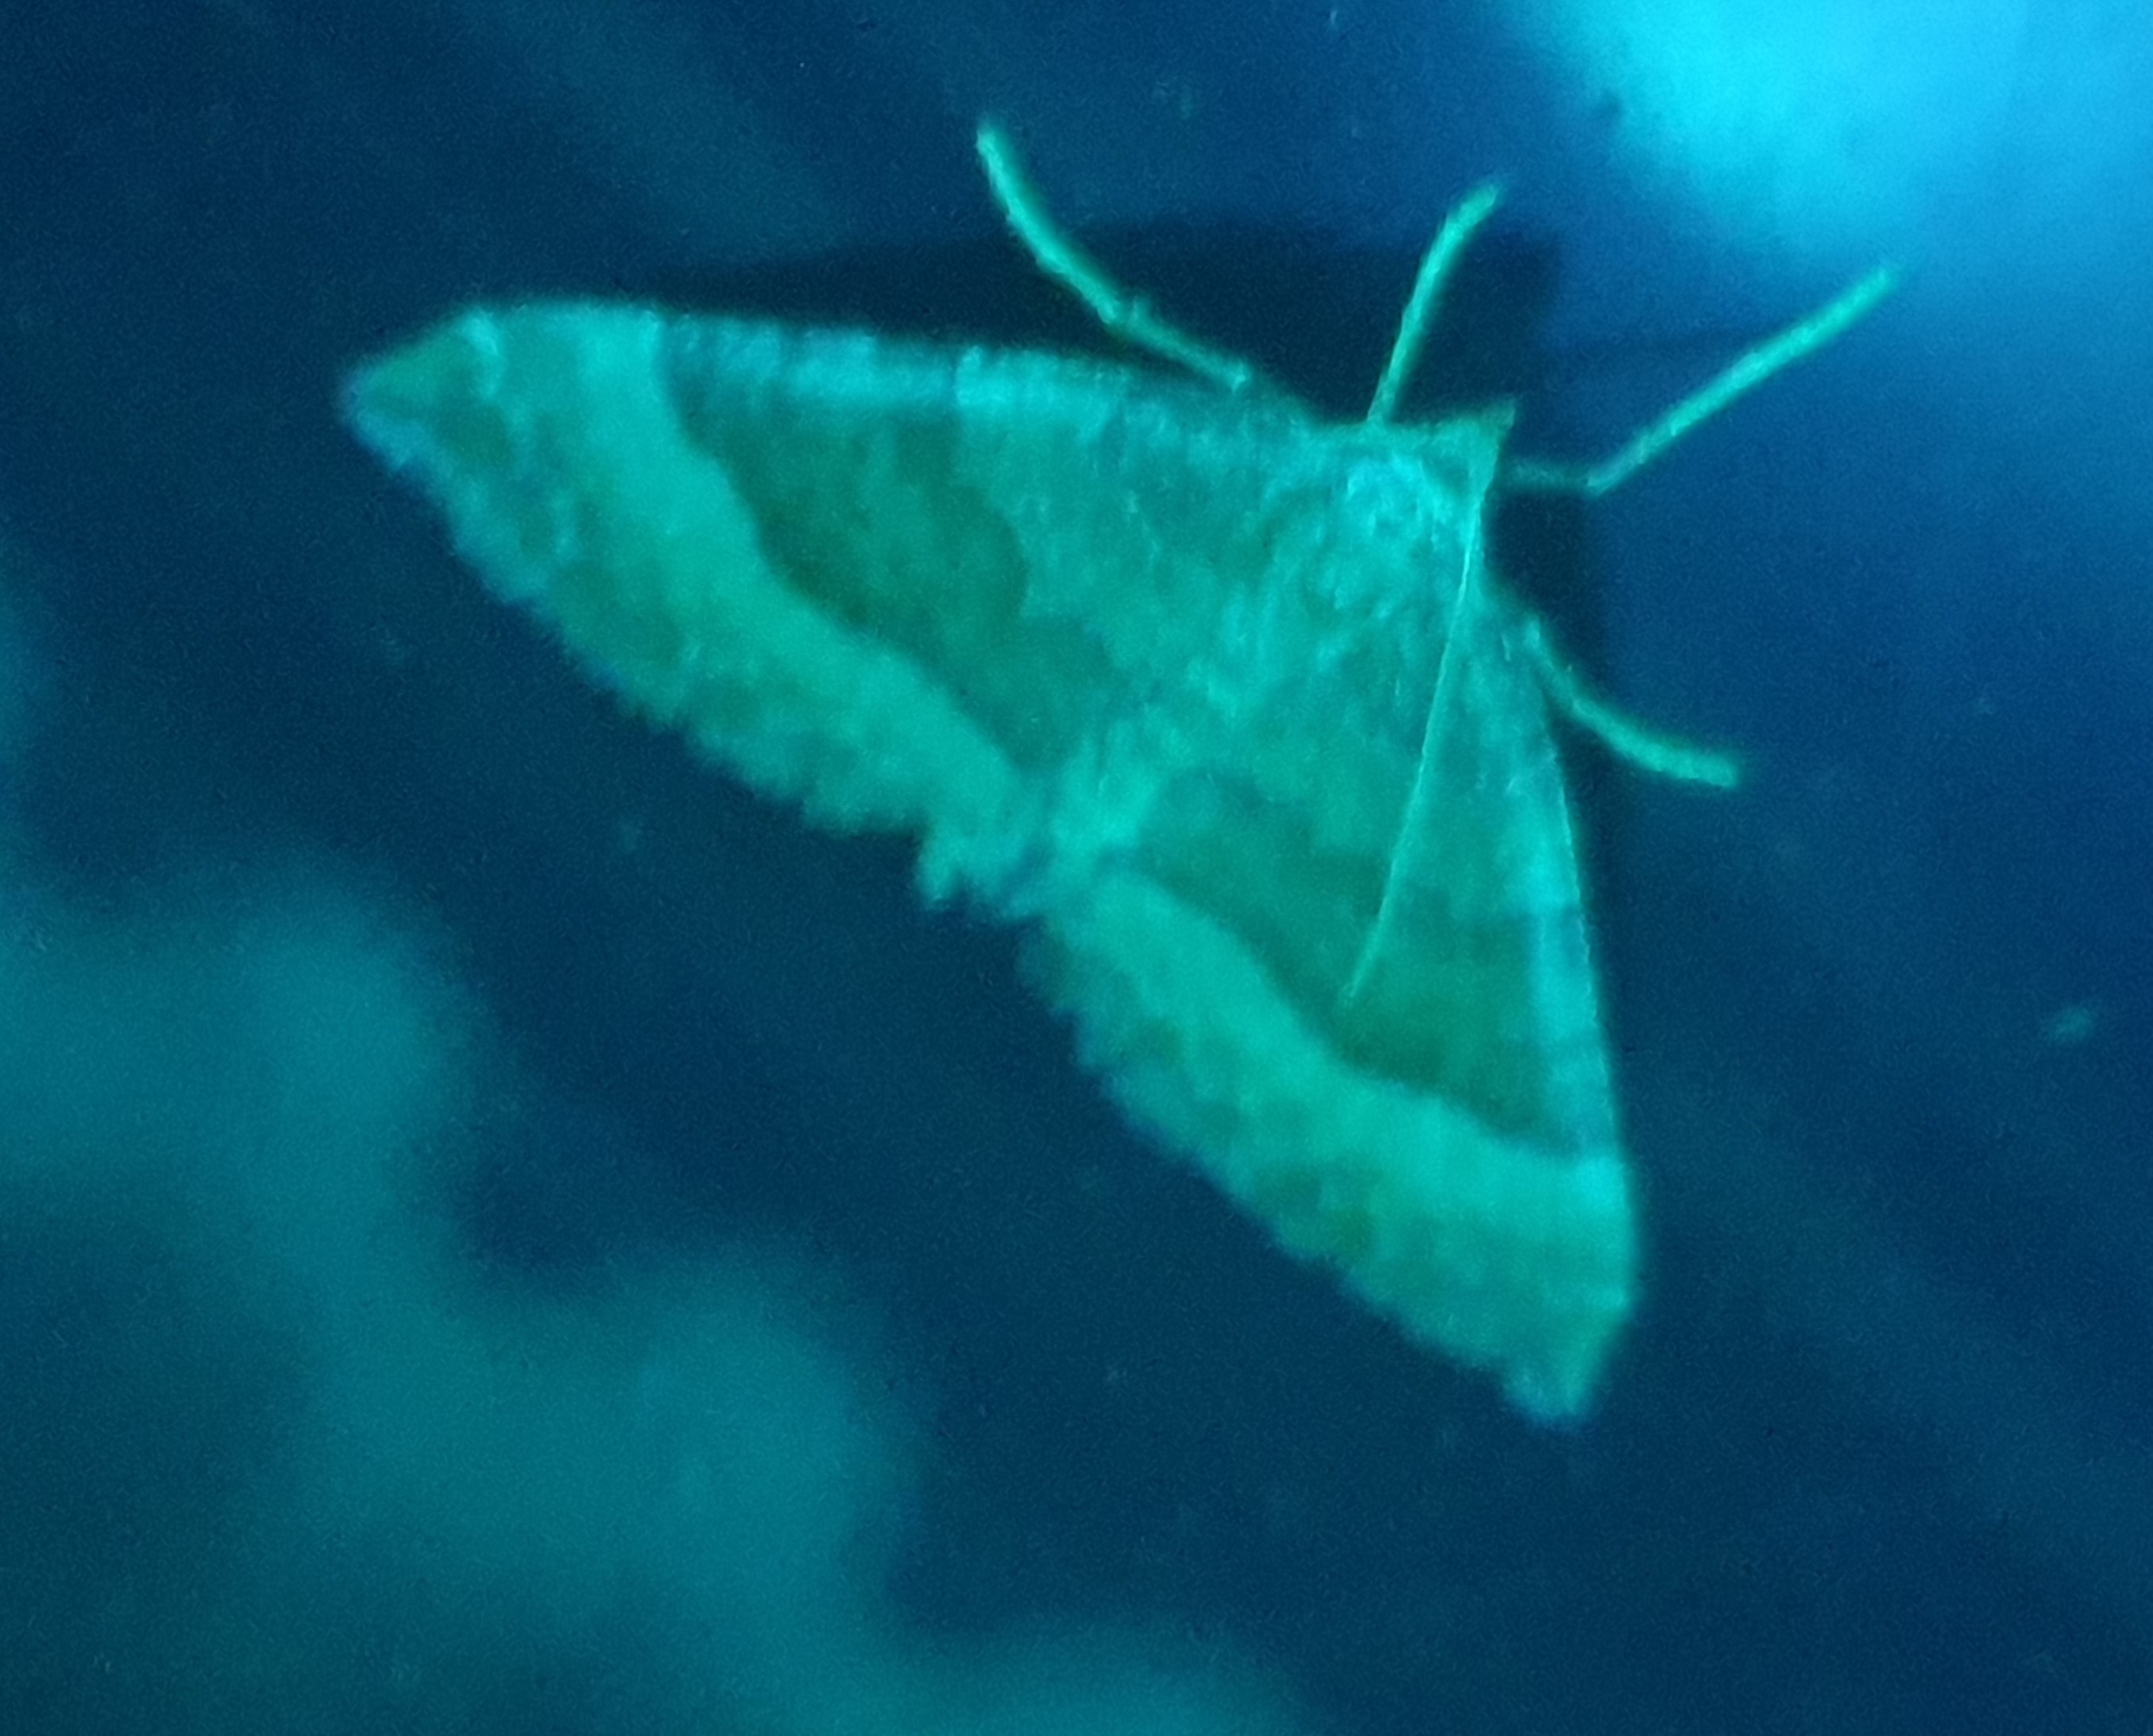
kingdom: Animalia
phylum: Arthropoda
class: Insecta
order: Lepidoptera
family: Geometridae
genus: Larentia
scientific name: Larentia clavaria
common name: Katostmåler
